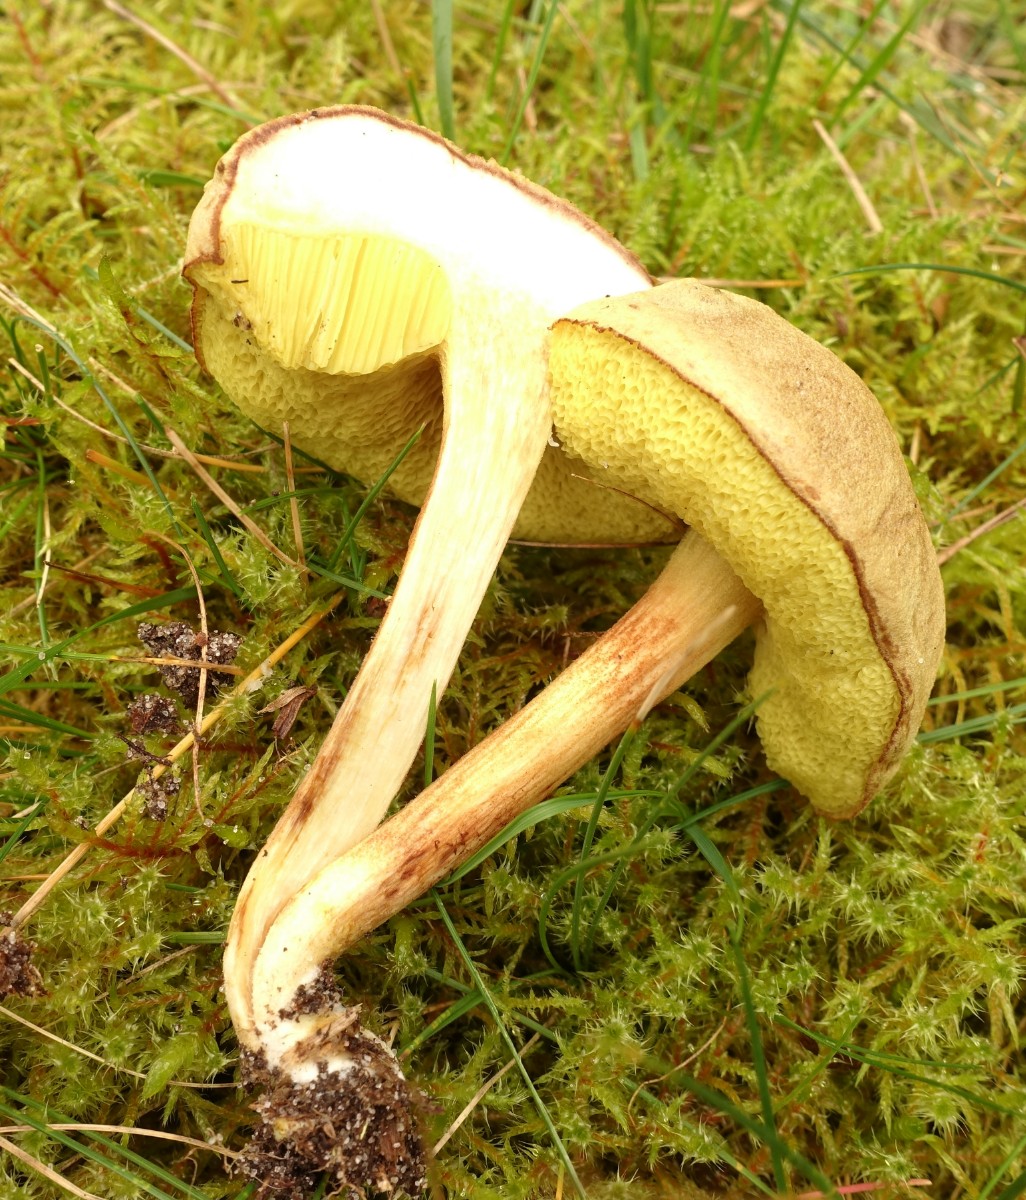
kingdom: Fungi
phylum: Basidiomycota
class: Agaricomycetes
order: Boletales
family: Boletaceae
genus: Xerocomus
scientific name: Xerocomus ferrugineus
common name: vaskeskinds-rørhat
